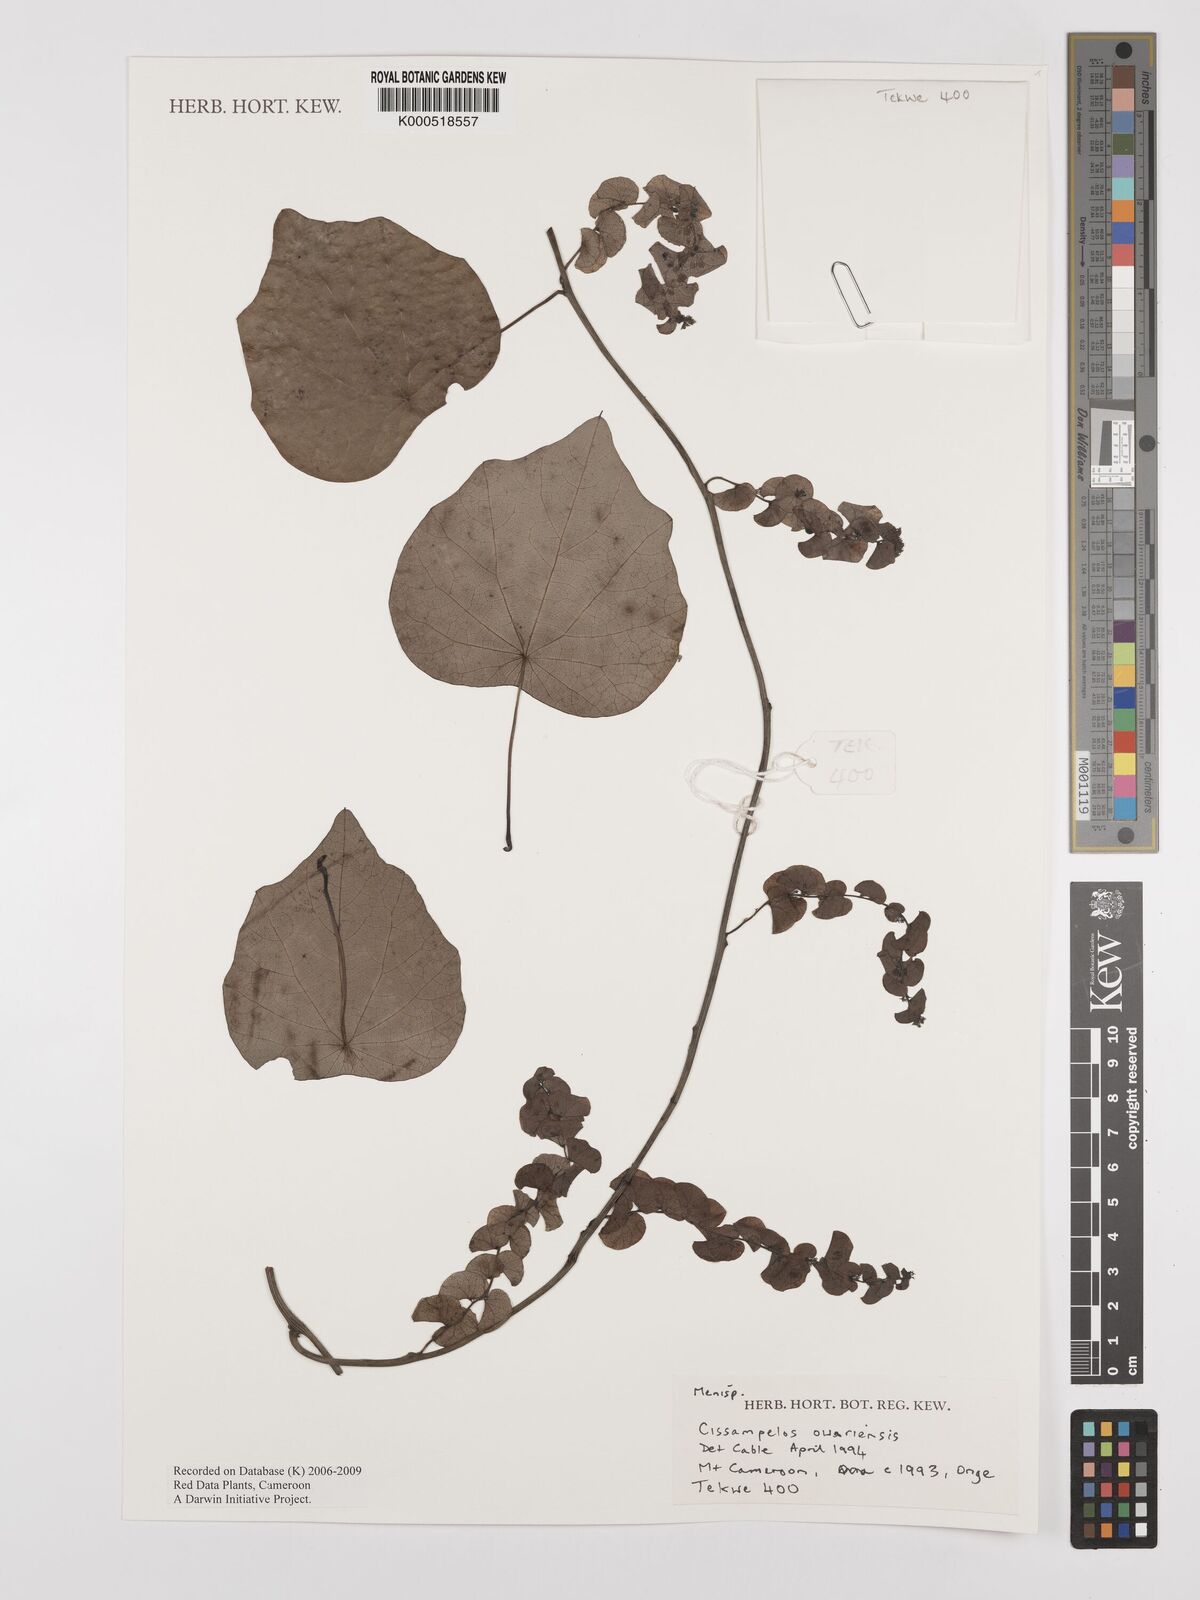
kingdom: Plantae
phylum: Tracheophyta
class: Magnoliopsida
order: Ranunculales
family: Menispermaceae
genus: Cissampelos
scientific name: Cissampelos owariensis
